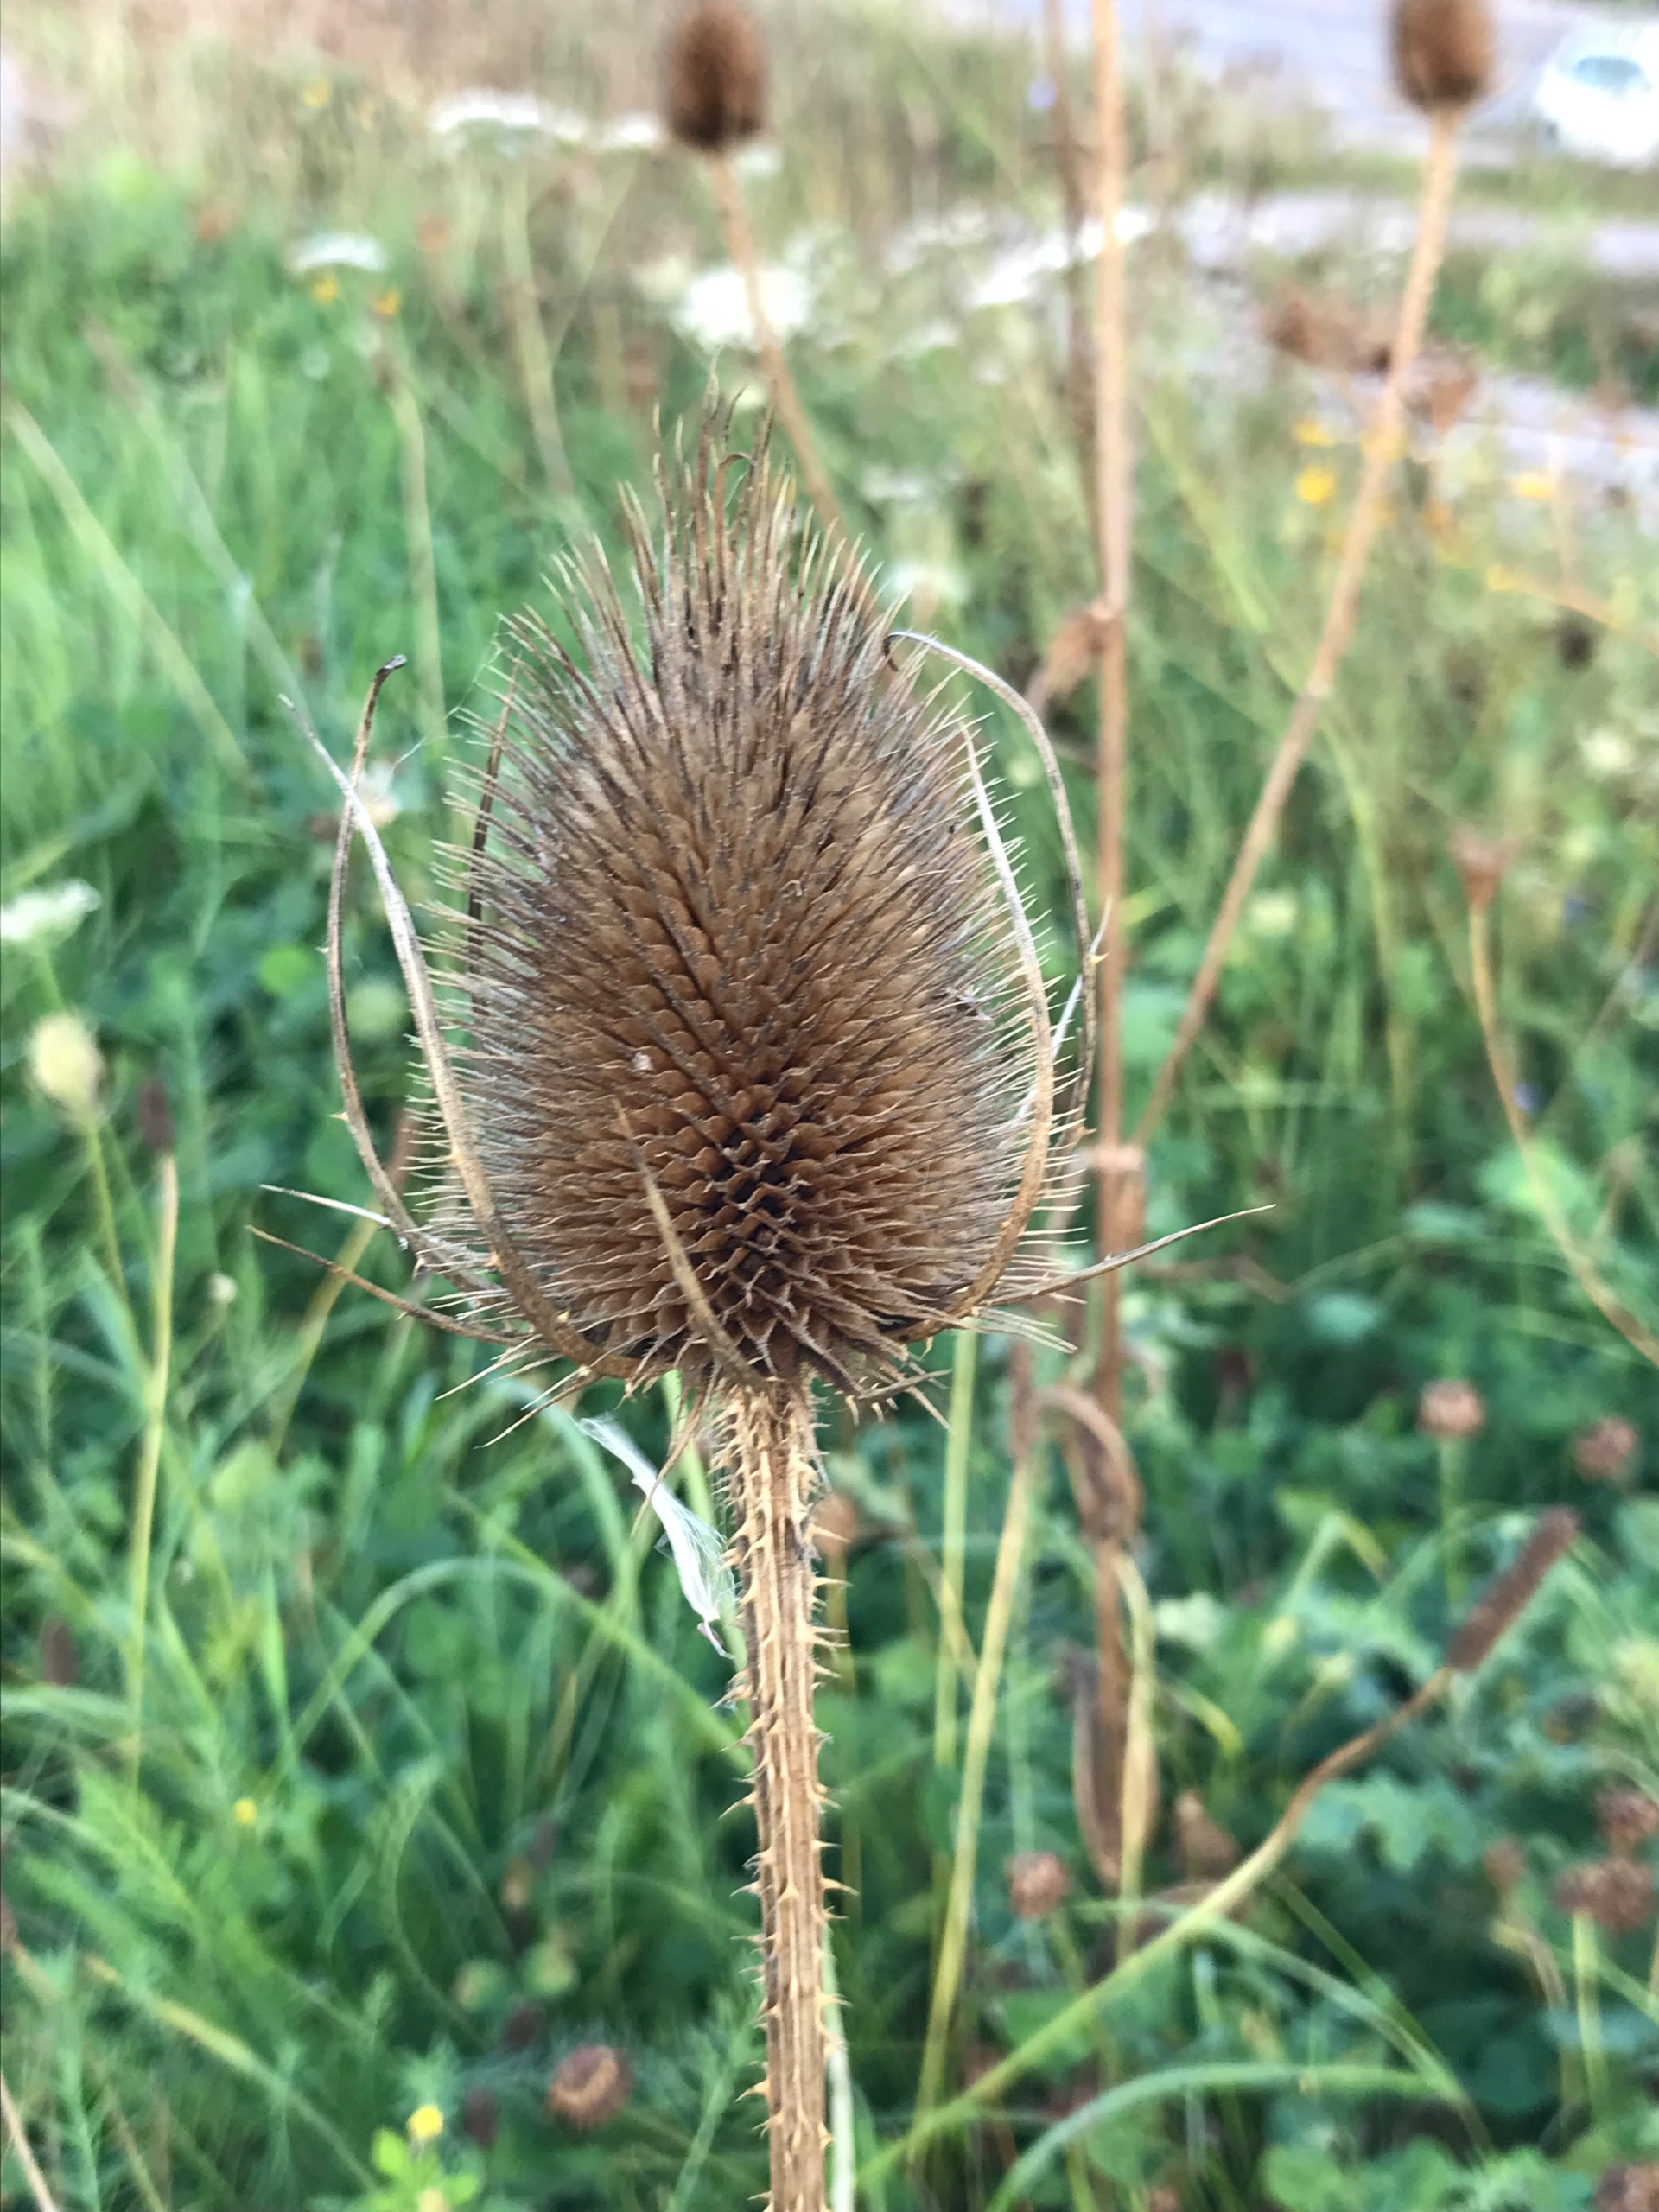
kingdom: Plantae
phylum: Tracheophyta
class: Magnoliopsida
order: Dipsacales
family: Caprifoliaceae
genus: Dipsacus
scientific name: Dipsacus fullonum
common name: Gærde-kartebolle
